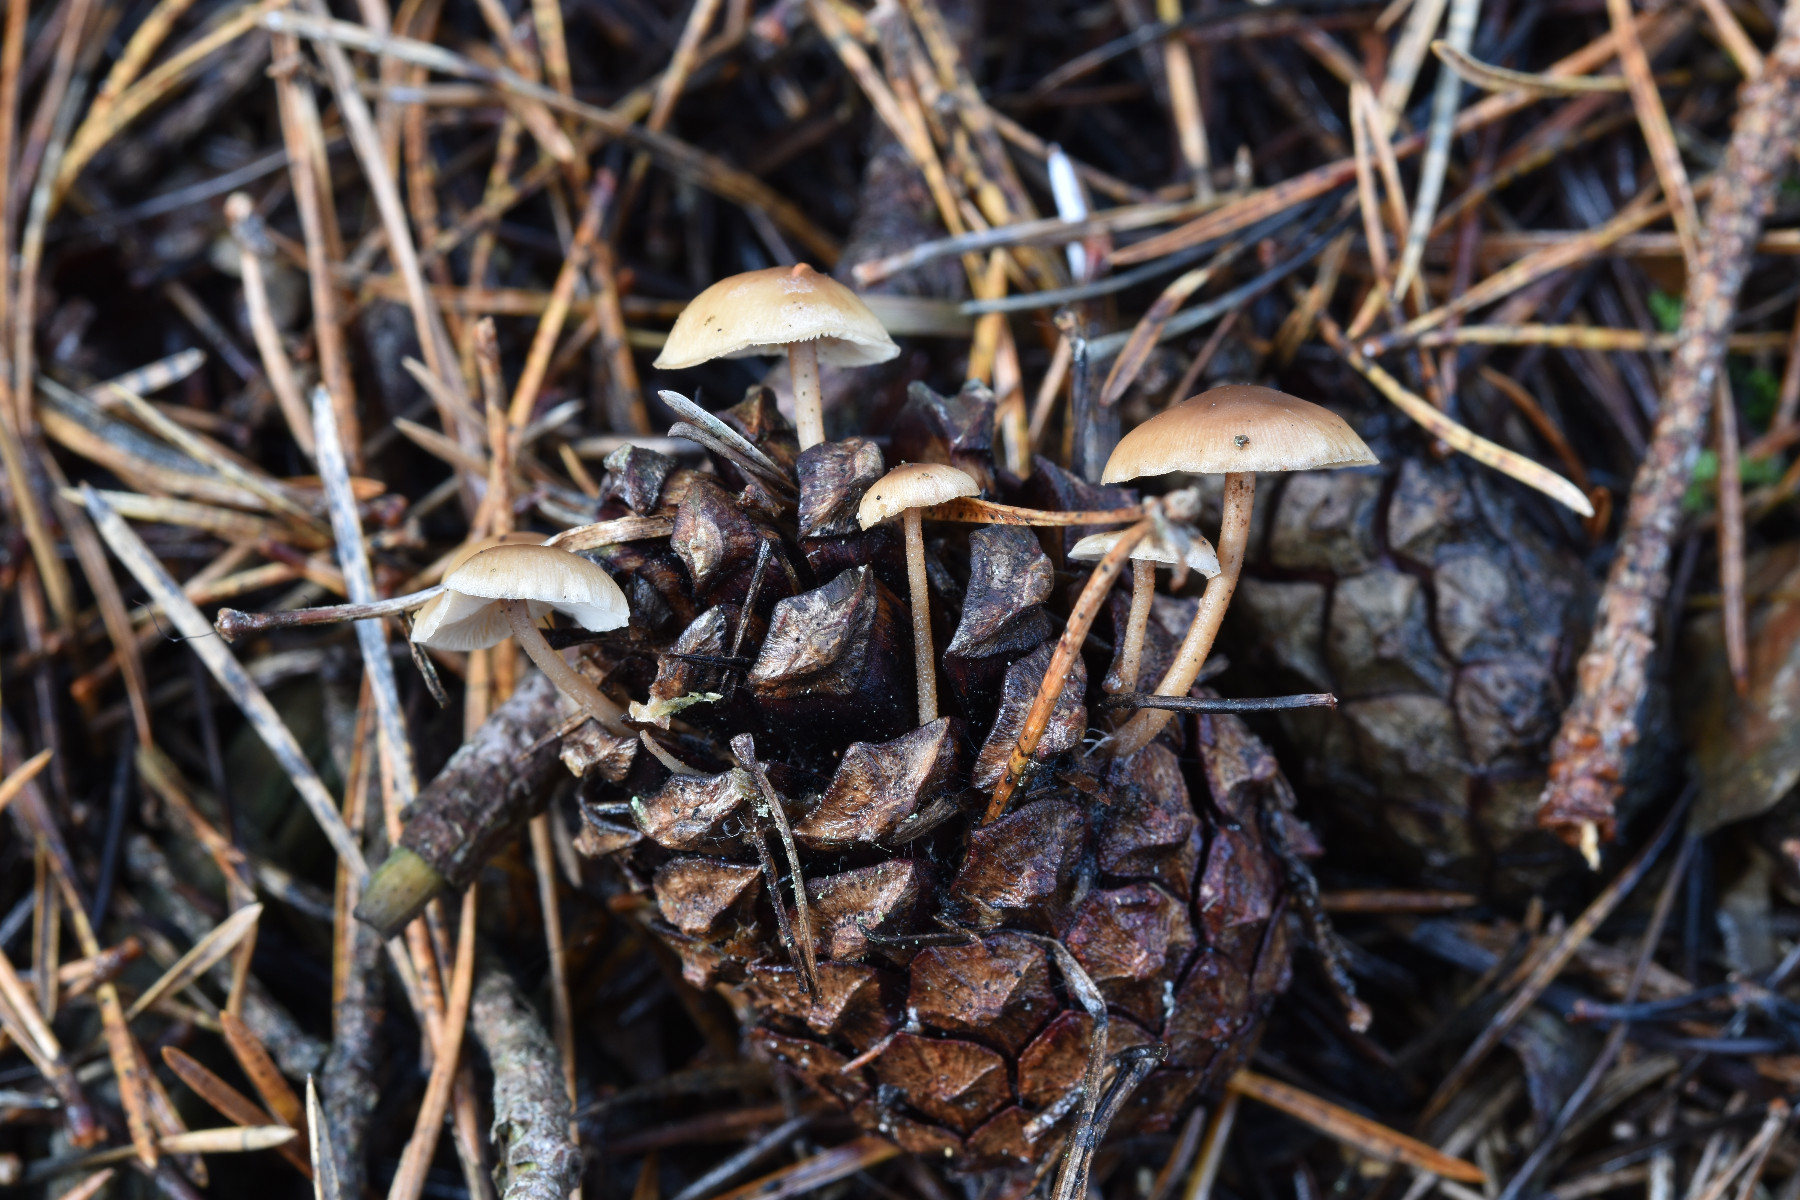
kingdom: Fungi
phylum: Basidiomycota
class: Agaricomycetes
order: Agaricales
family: Marasmiaceae
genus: Baeospora
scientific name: Baeospora myosura
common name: koglebruskhat
